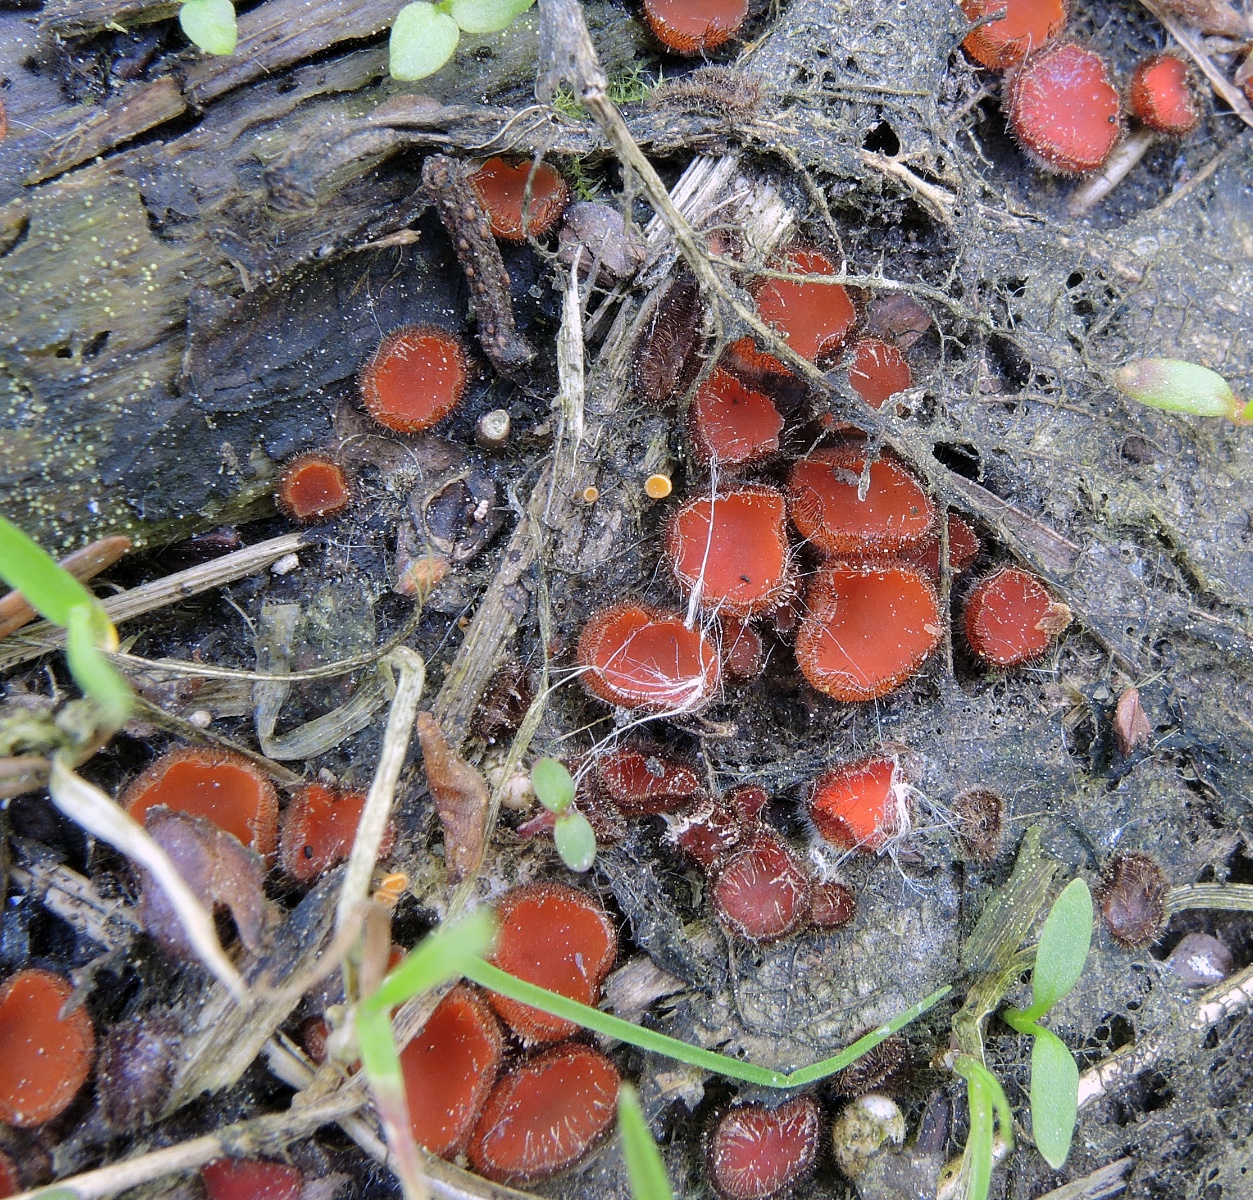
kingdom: Fungi
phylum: Ascomycota
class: Pezizomycetes
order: Pezizales
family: Pyronemataceae
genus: Scutellinia
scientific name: Scutellinia scutellata
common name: frynset skjoldbæger
